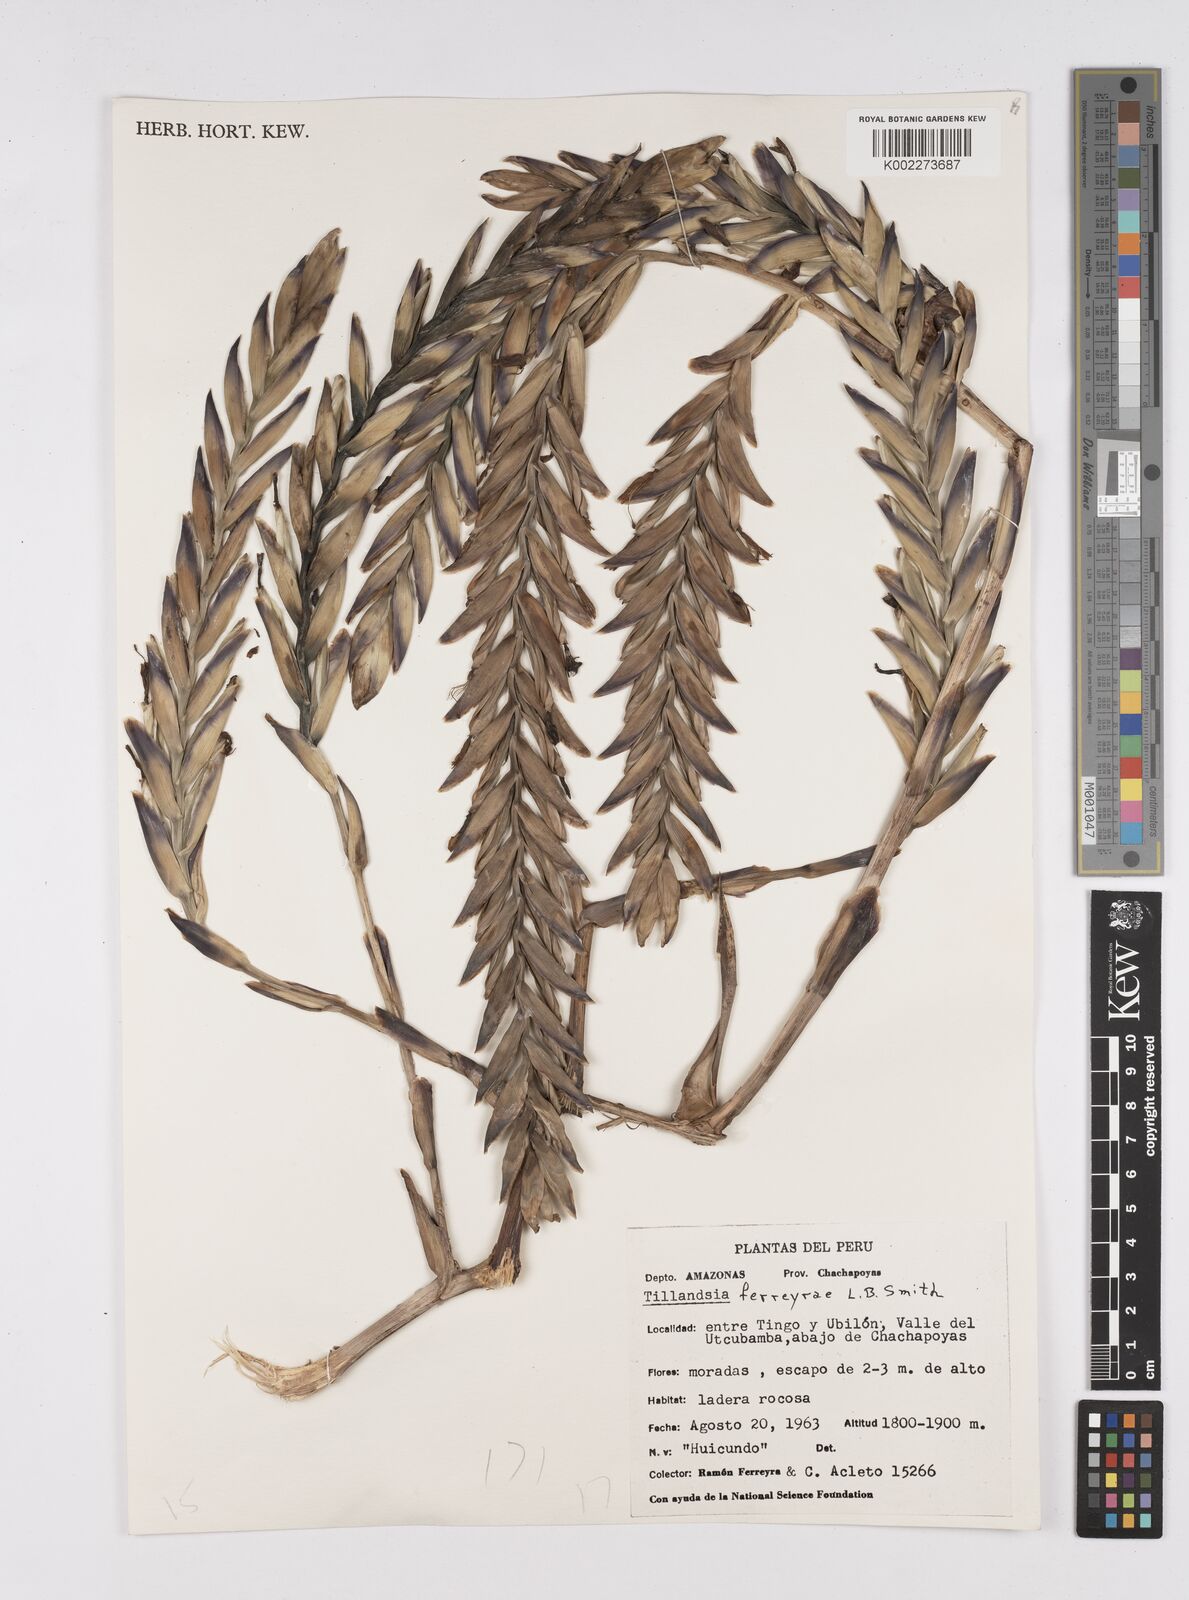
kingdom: Plantae
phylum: Tracheophyta
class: Liliopsida
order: Poales
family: Bromeliaceae
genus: Tillandsia
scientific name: Tillandsia ferreyrae
